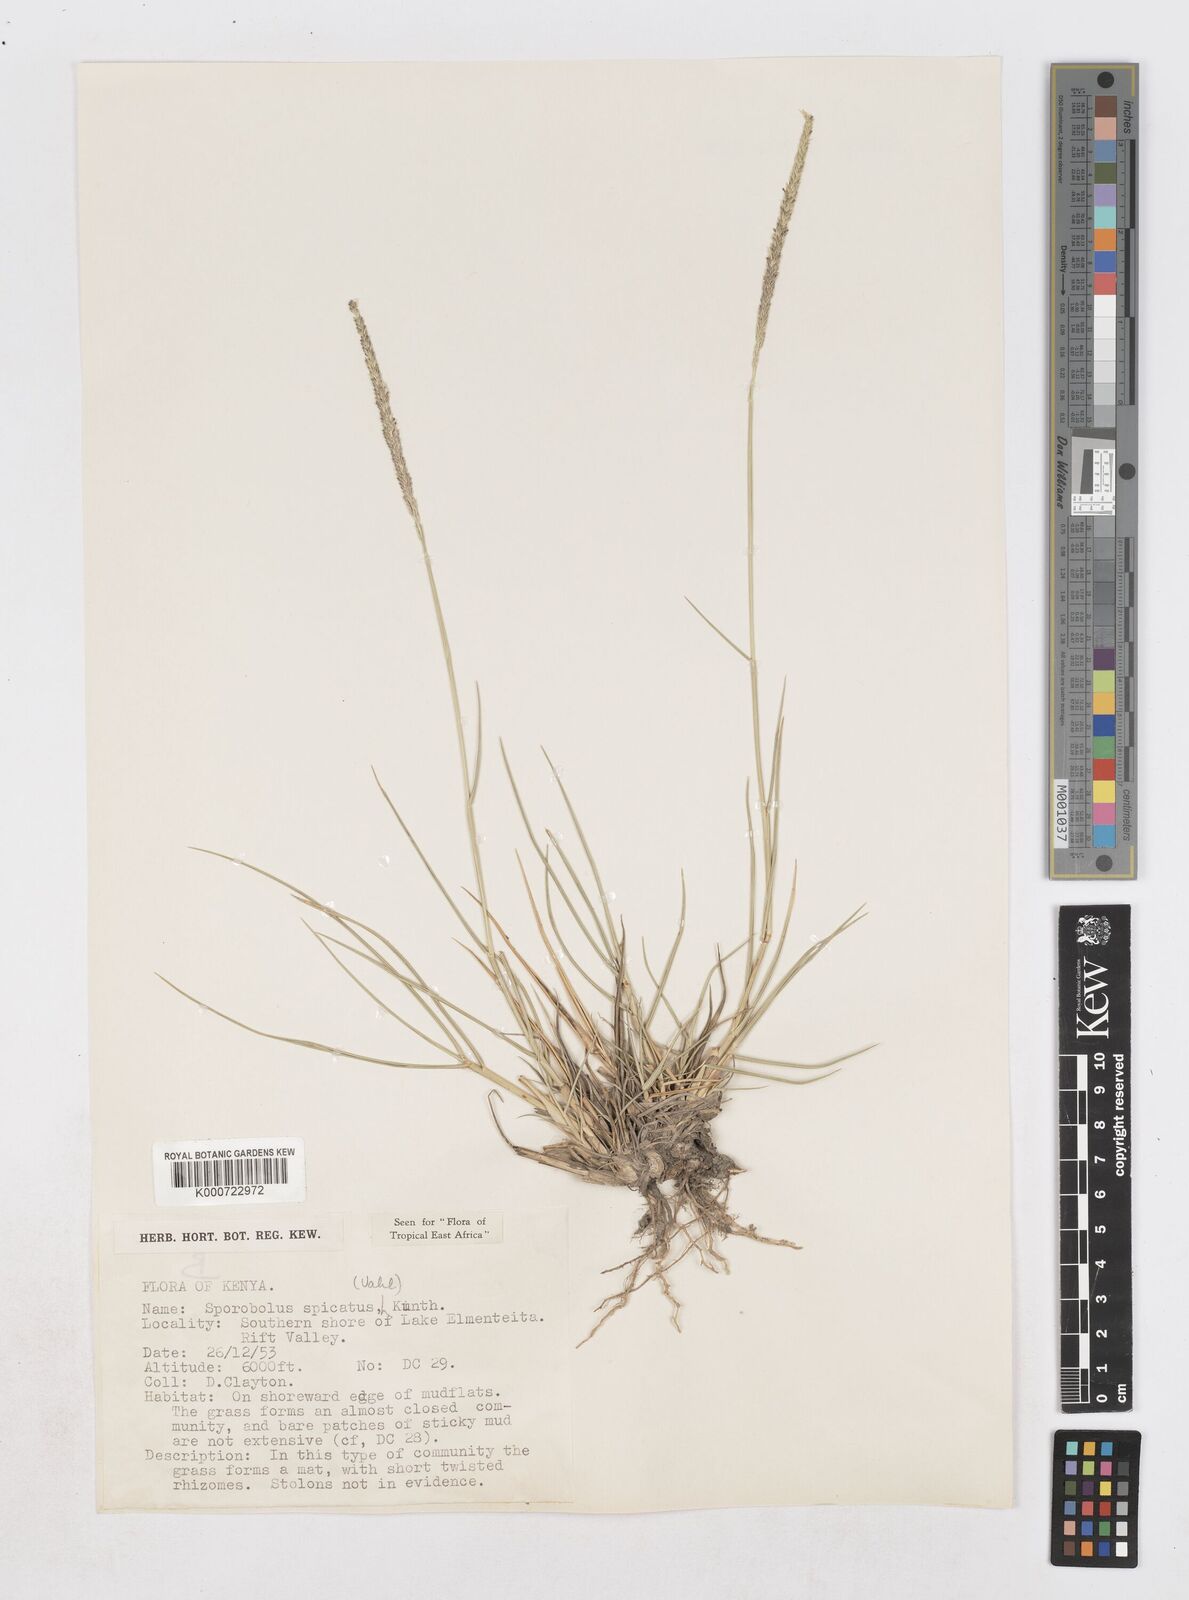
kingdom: Plantae
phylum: Tracheophyta
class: Liliopsida
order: Poales
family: Poaceae
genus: Sporobolus
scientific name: Sporobolus spicatus
